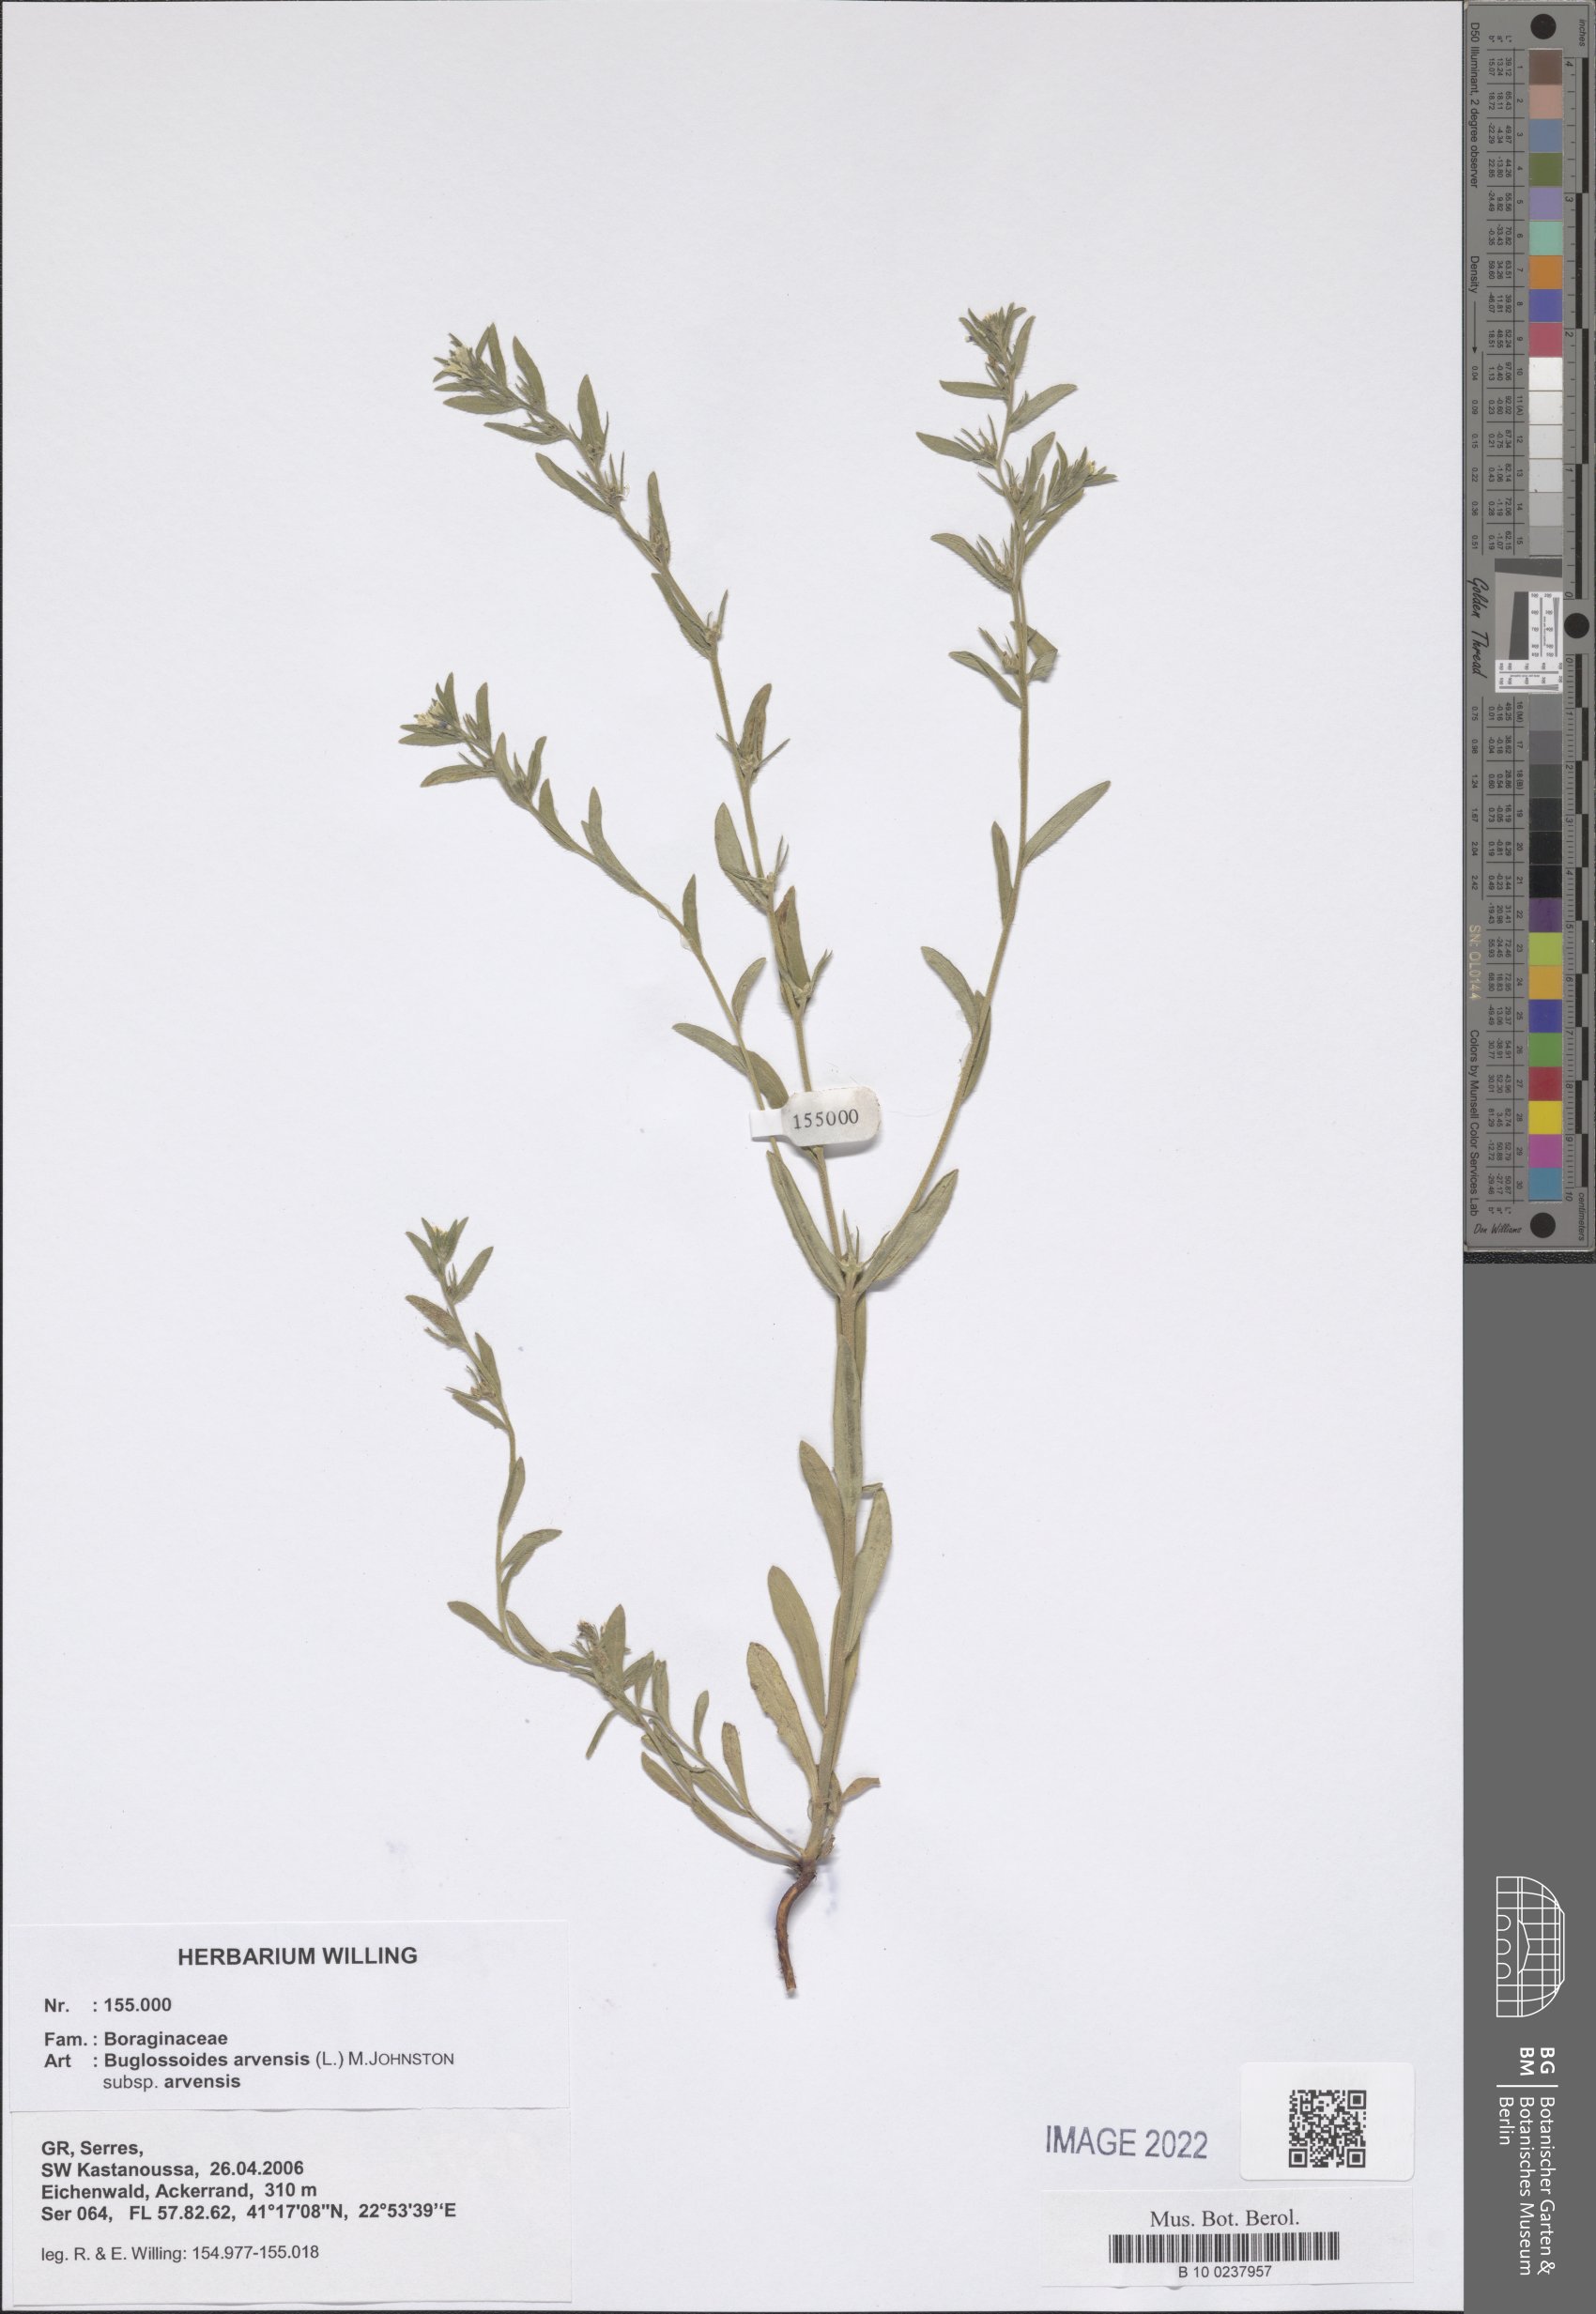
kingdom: Plantae
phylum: Tracheophyta
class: Magnoliopsida
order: Boraginales
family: Boraginaceae
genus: Buglossoides
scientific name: Buglossoides arvensis
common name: Corn gromwell
